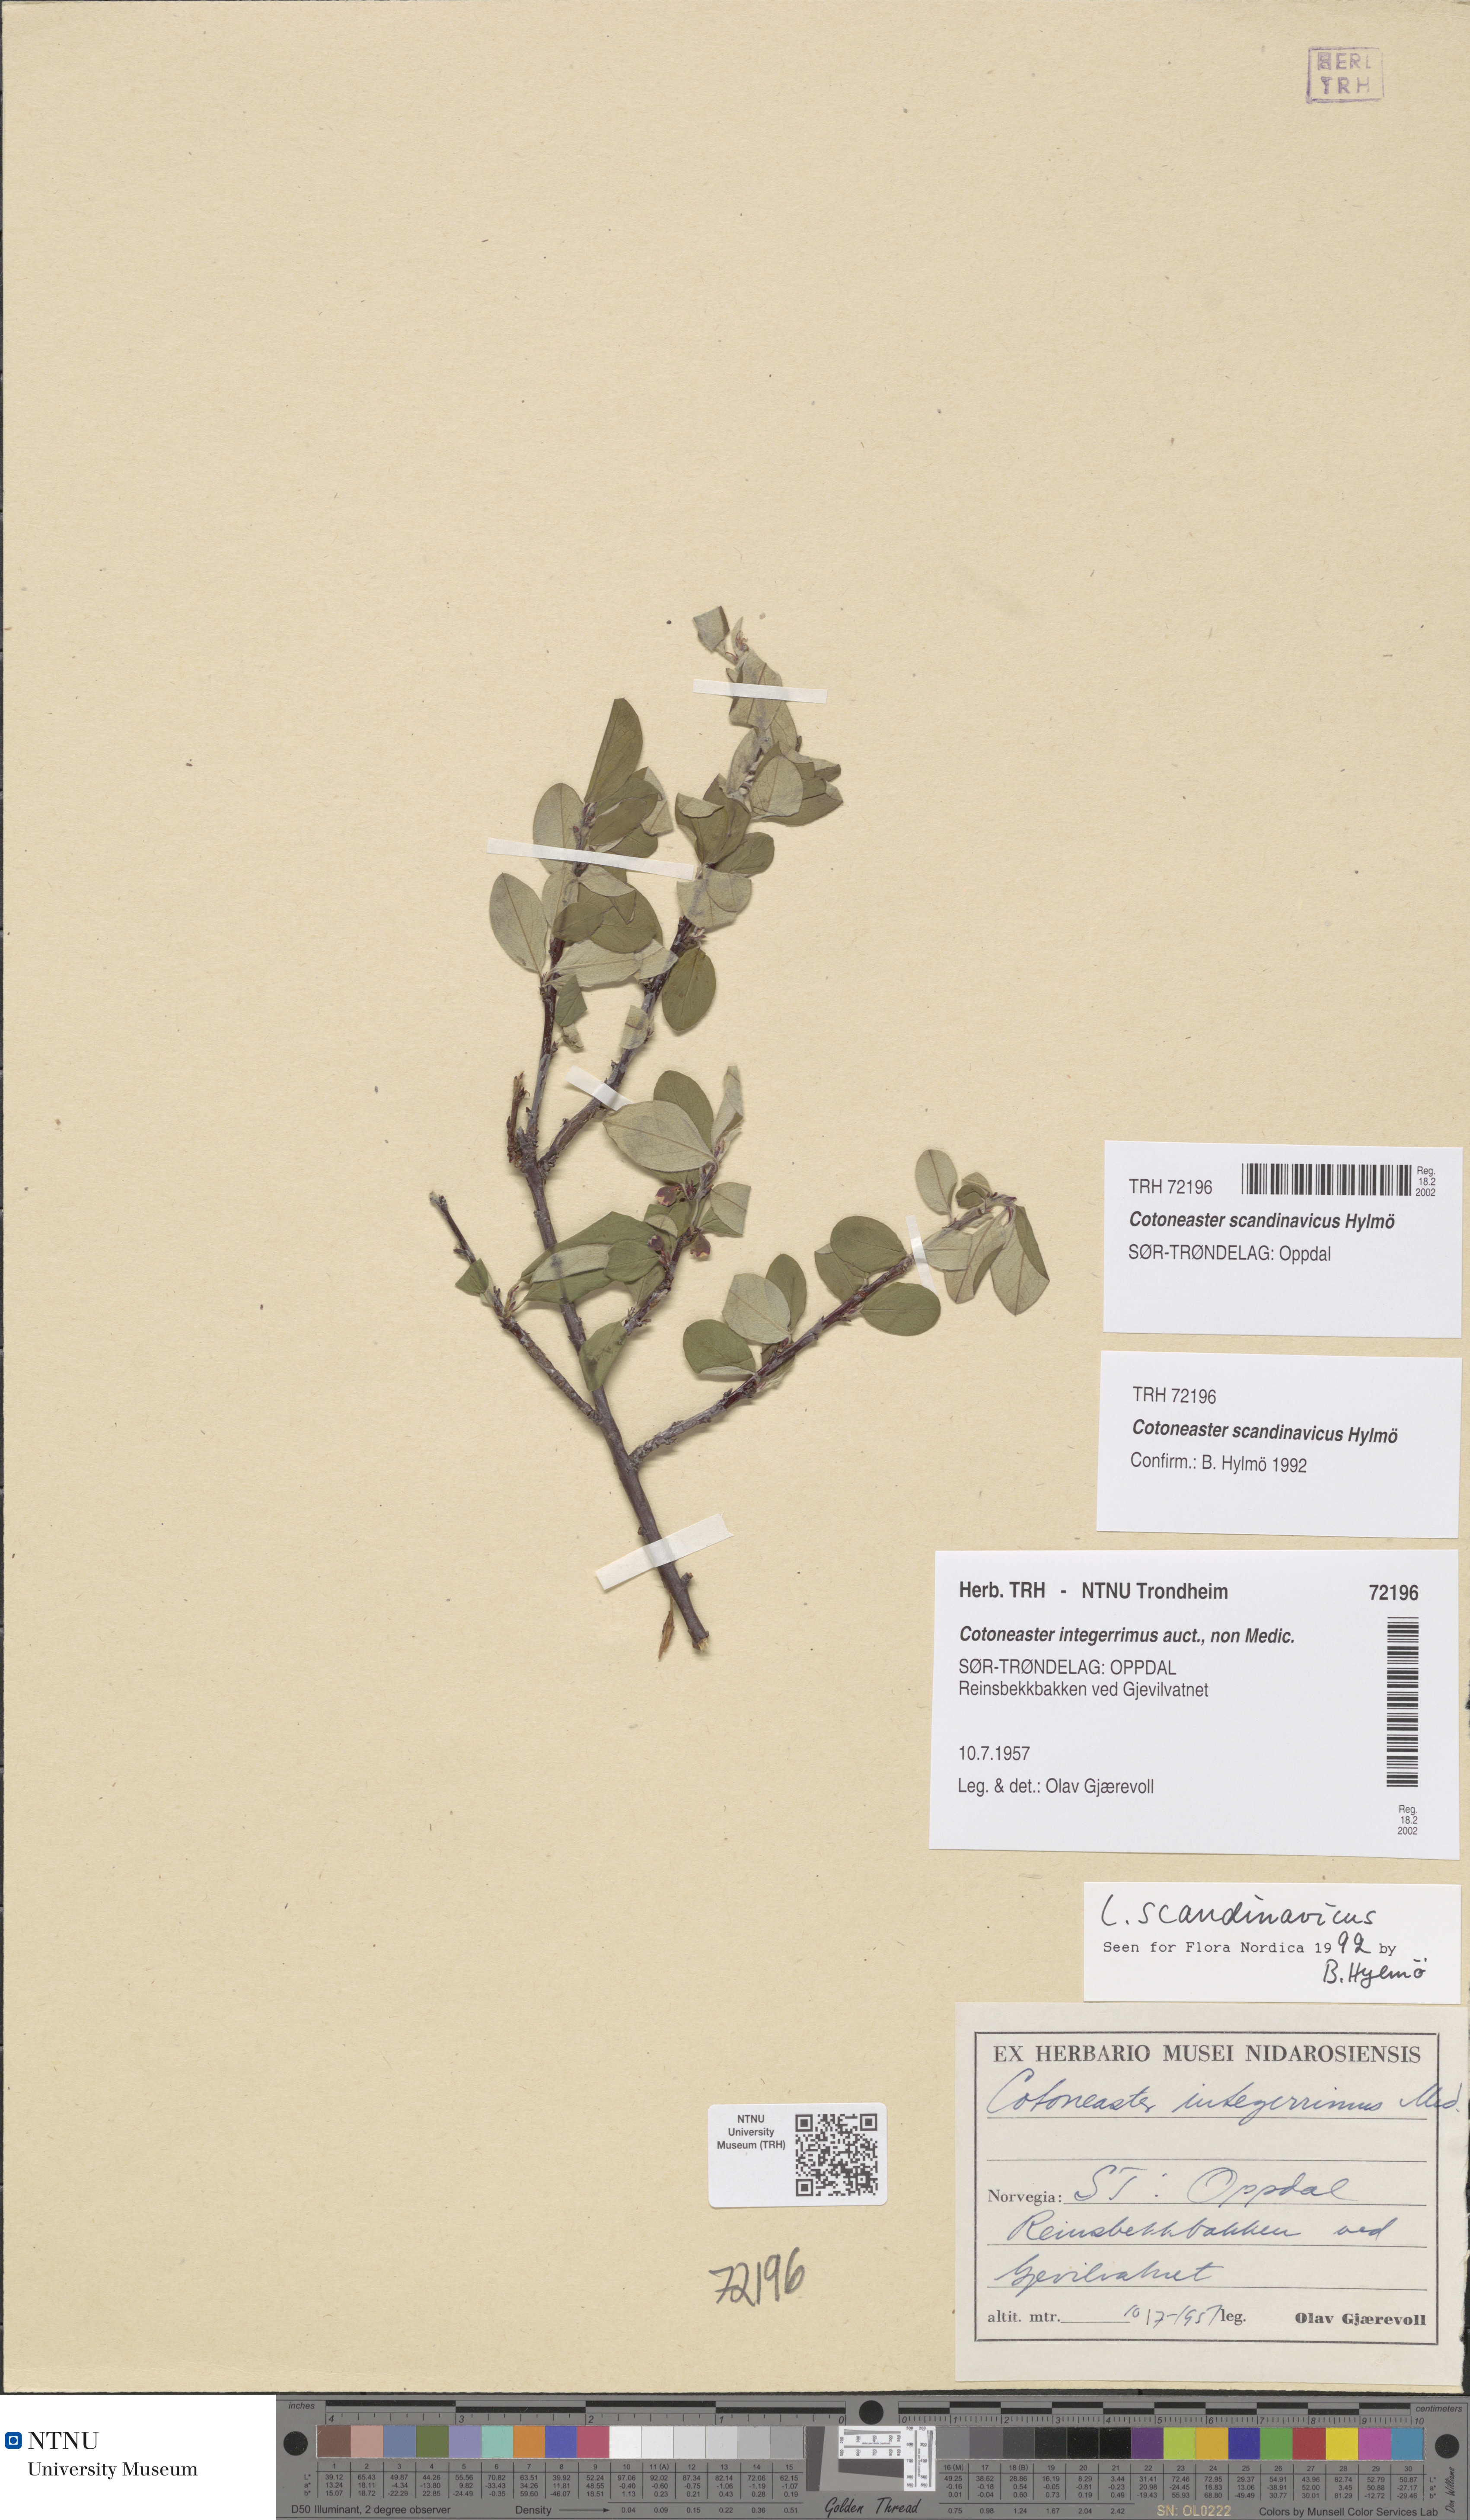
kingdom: Plantae
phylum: Tracheophyta
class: Magnoliopsida
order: Rosales
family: Rosaceae
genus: Cotoneaster
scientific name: Cotoneaster integerrimus
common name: Wild cotoneaster
